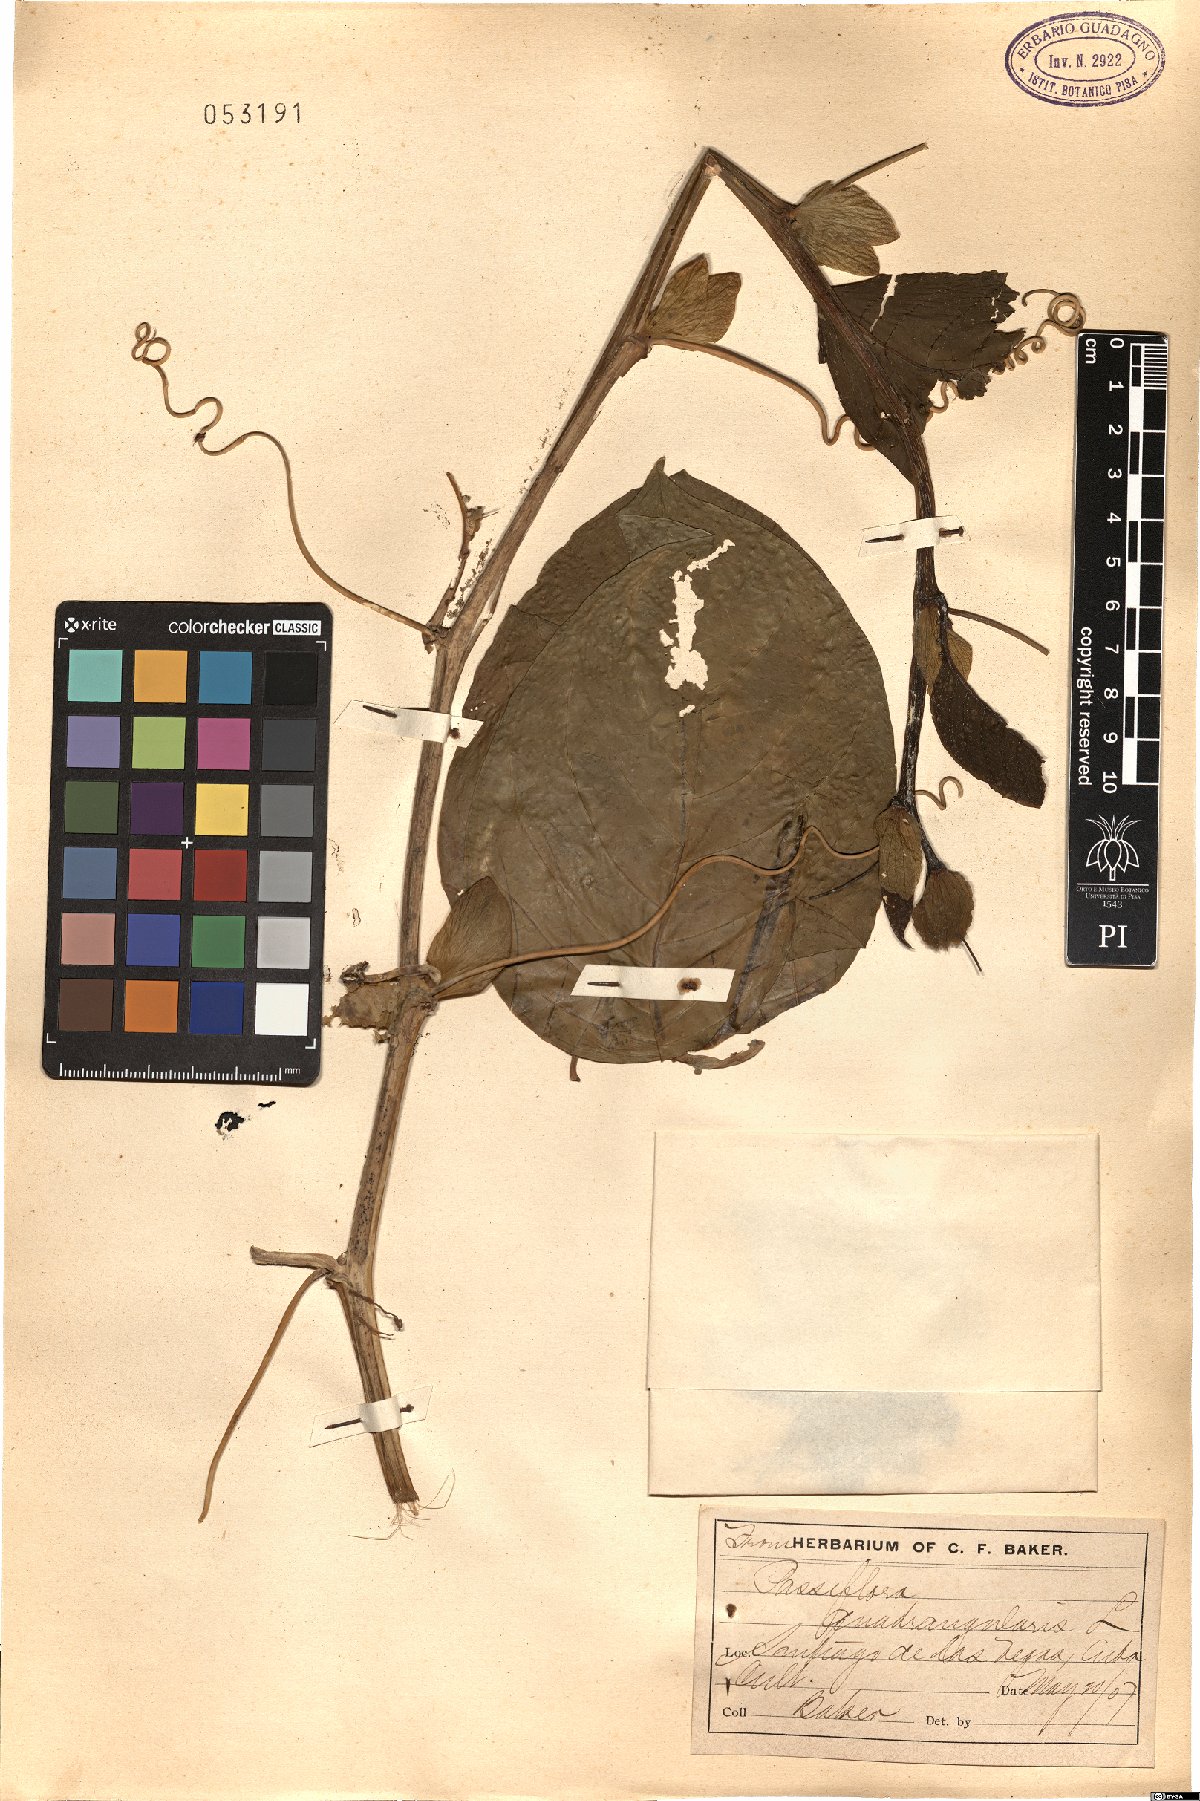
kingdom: Plantae
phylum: Tracheophyta
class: Magnoliopsida
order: Malpighiales
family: Passifloraceae
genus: Passiflora
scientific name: Passiflora quadrangularis
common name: Giant granadilla
